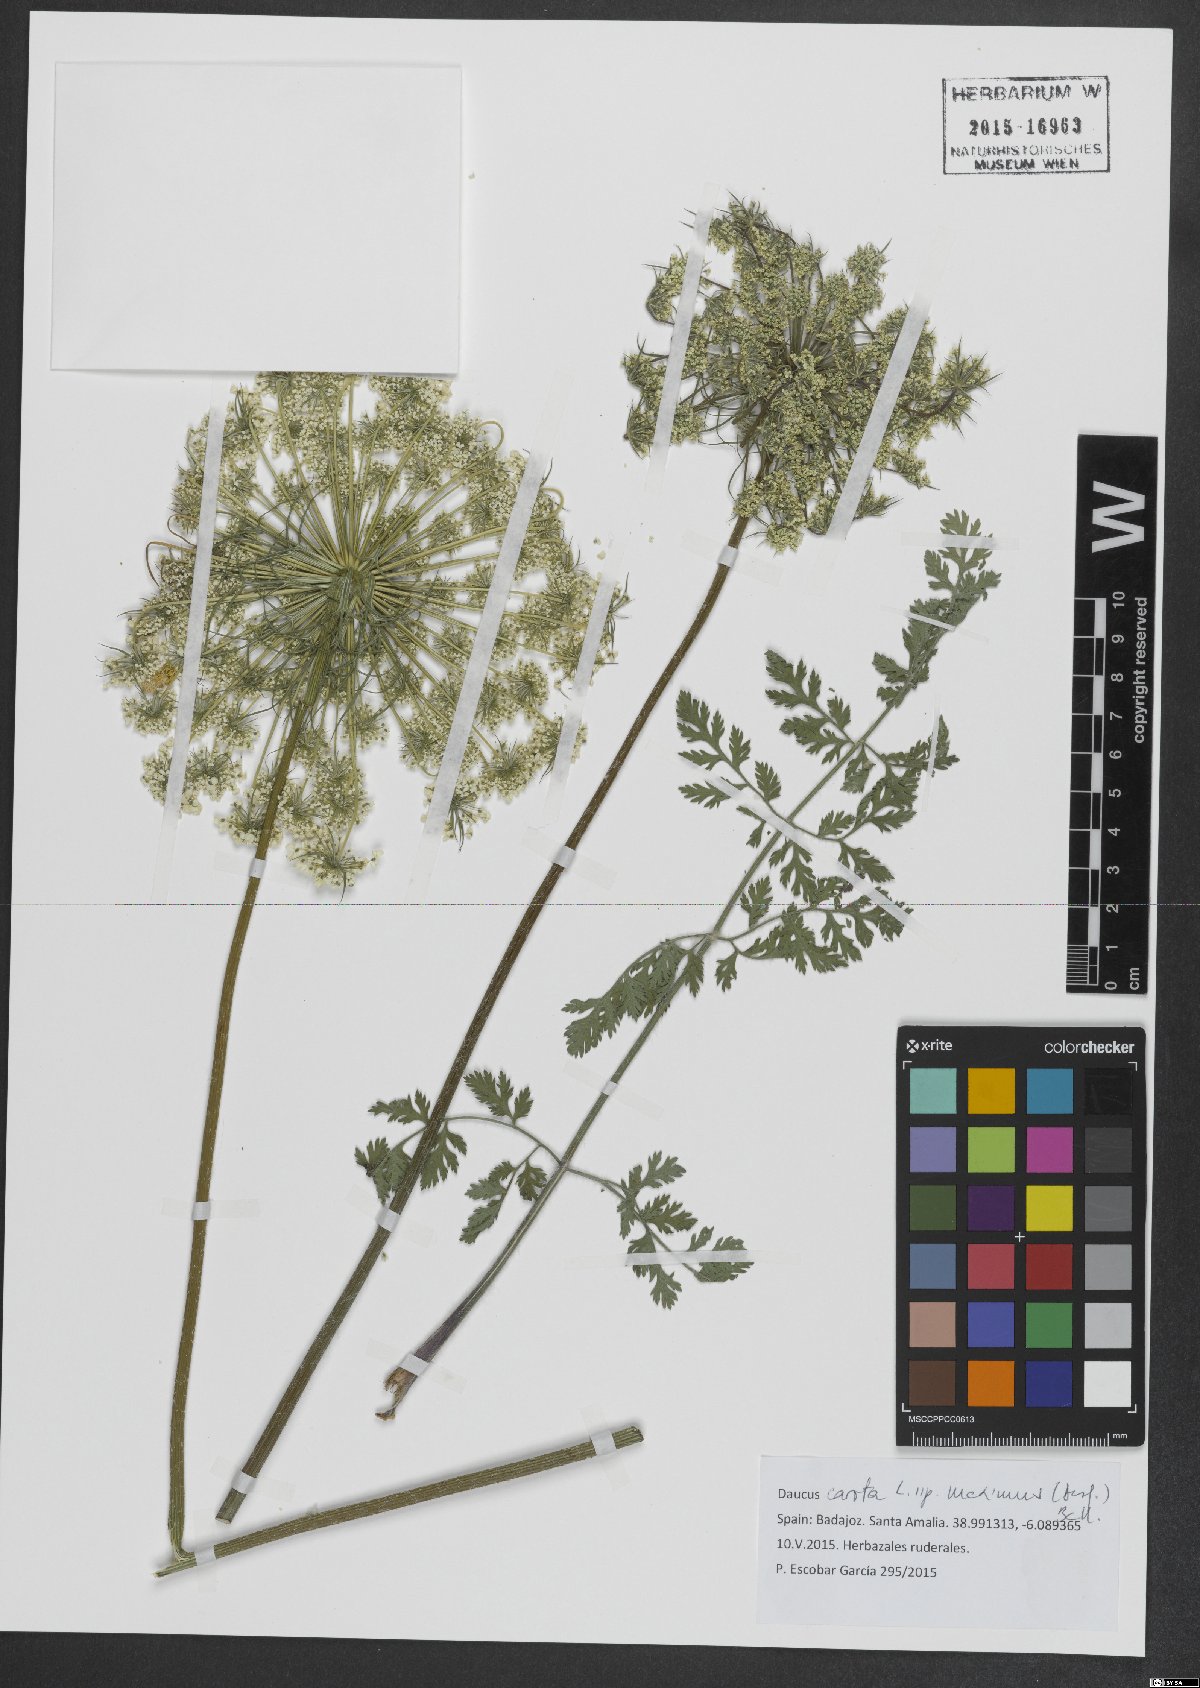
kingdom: Plantae
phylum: Tracheophyta
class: Magnoliopsida
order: Apiales
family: Apiaceae
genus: Daucus
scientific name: Daucus carota
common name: Wild carrot
